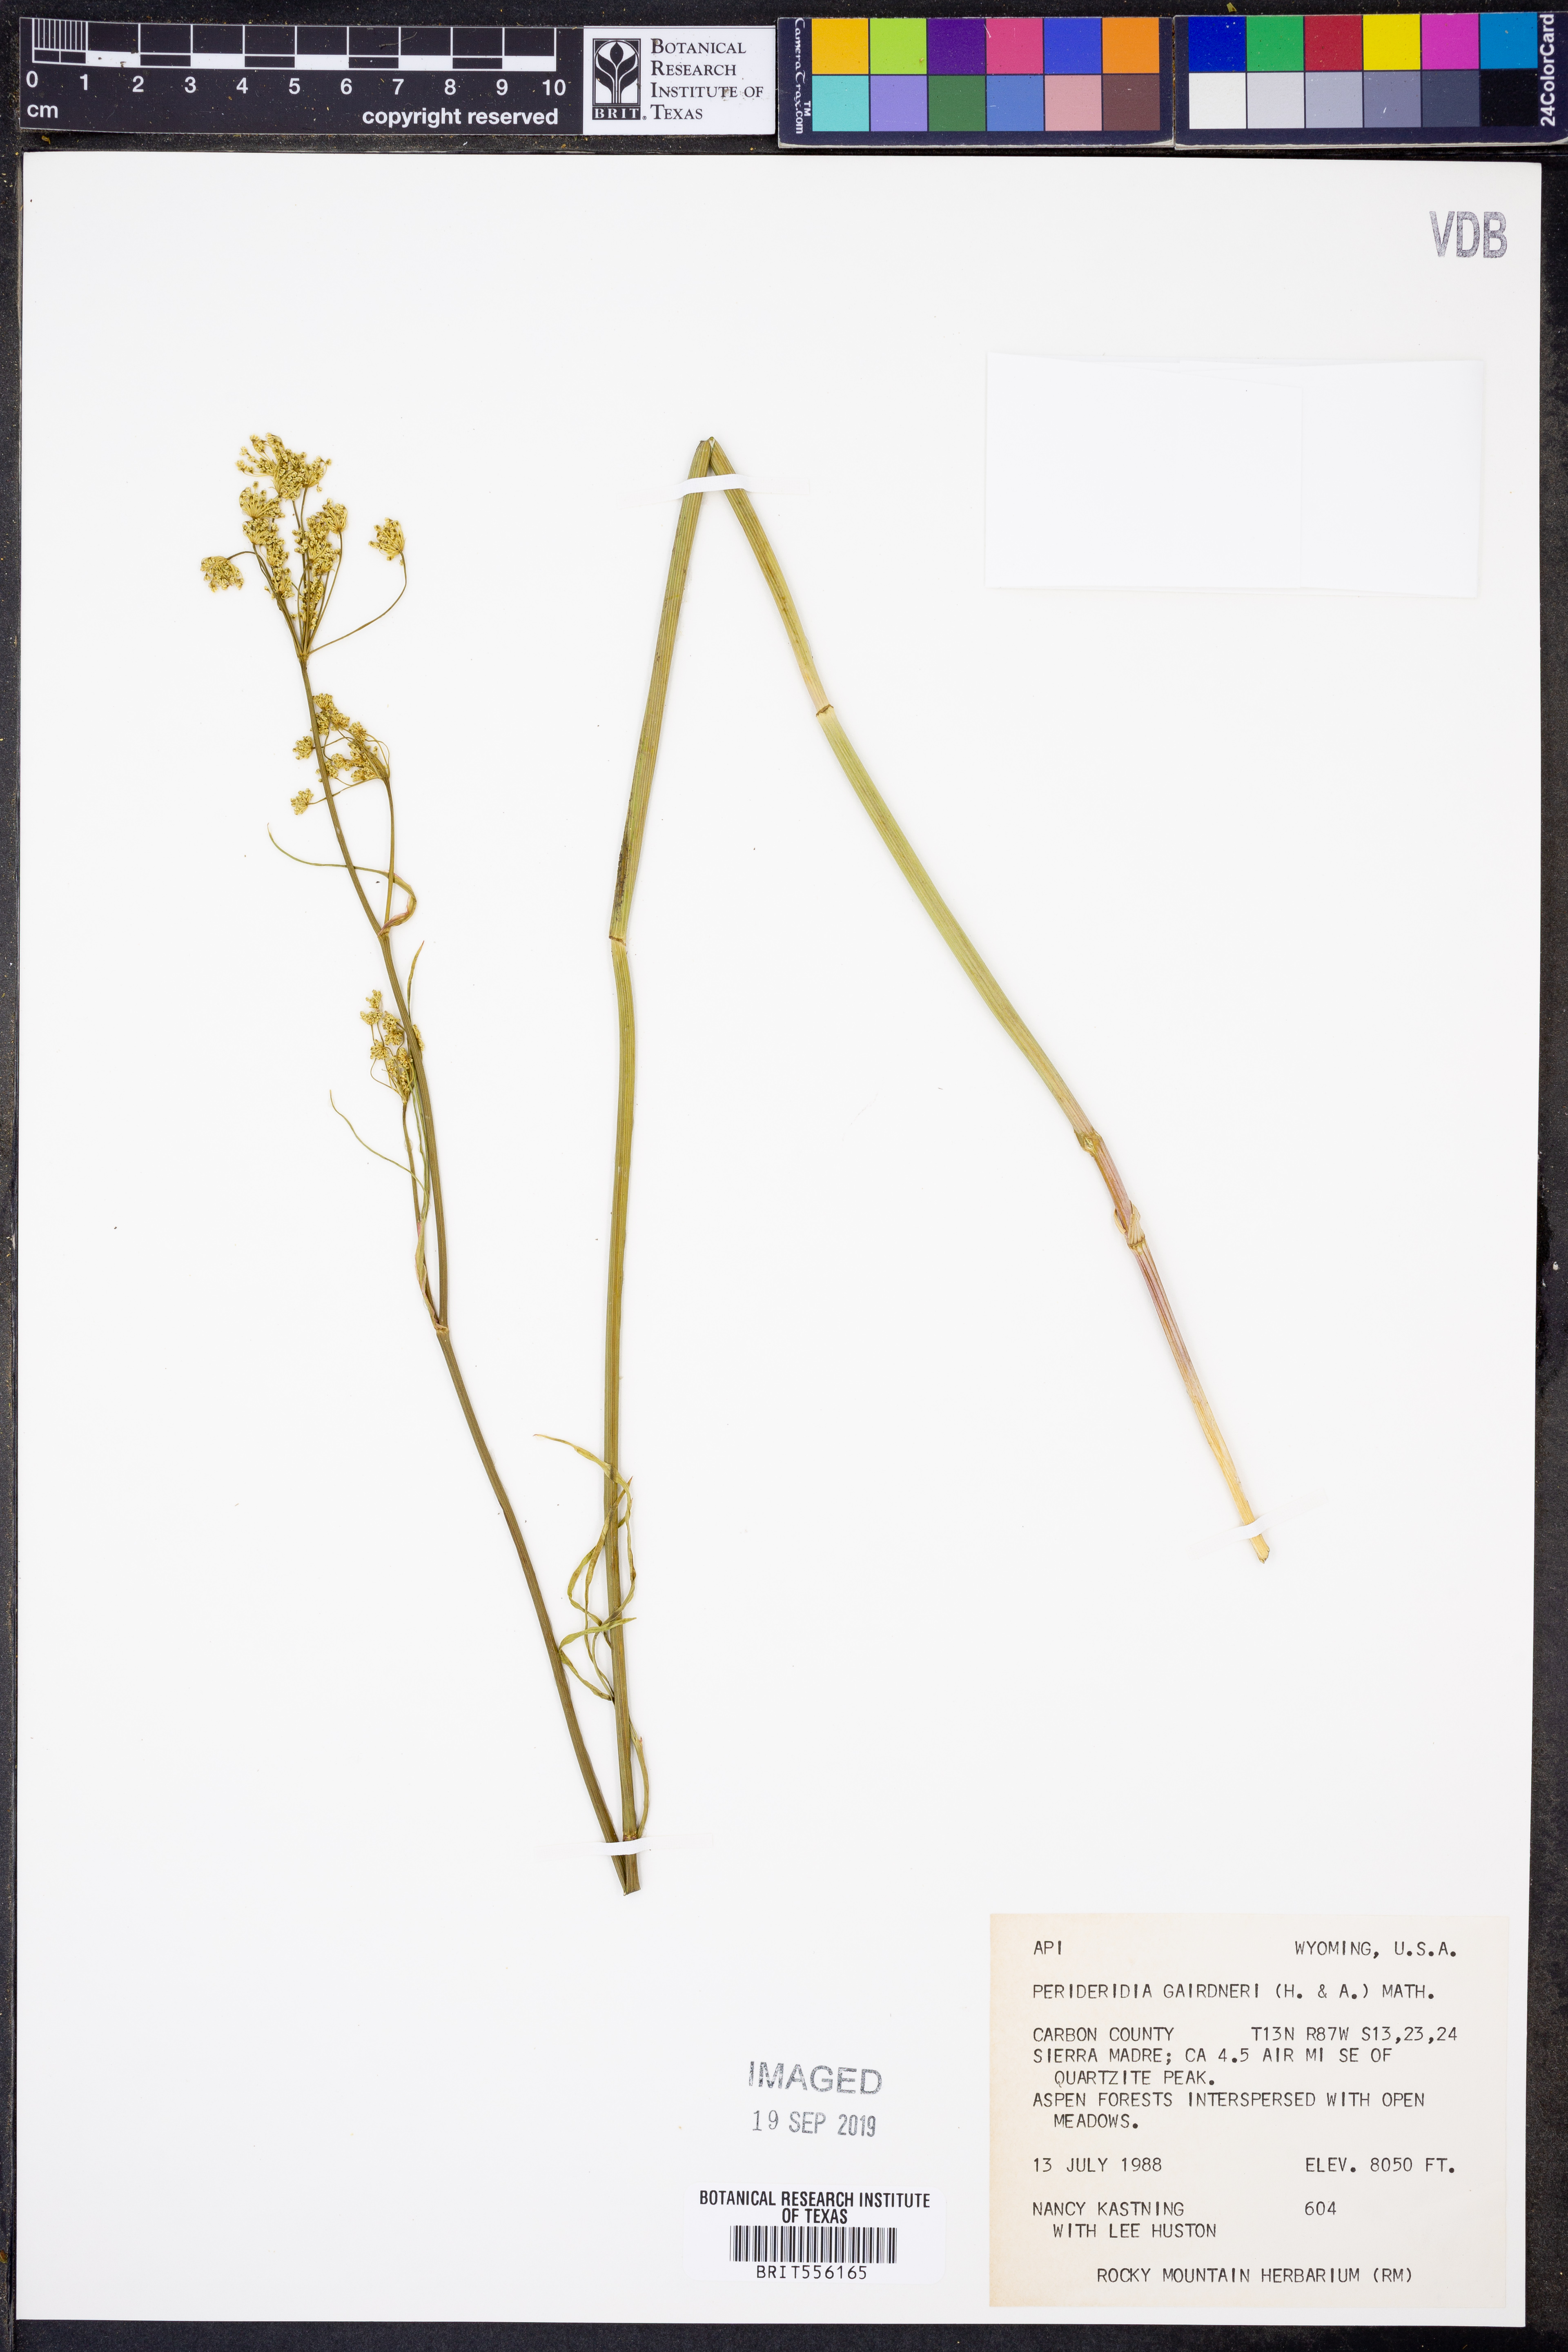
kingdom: Plantae
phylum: Tracheophyta
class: Magnoliopsida
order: Apiales
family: Apiaceae
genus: Perideridia
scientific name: Perideridia gairdneri
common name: False caraway
